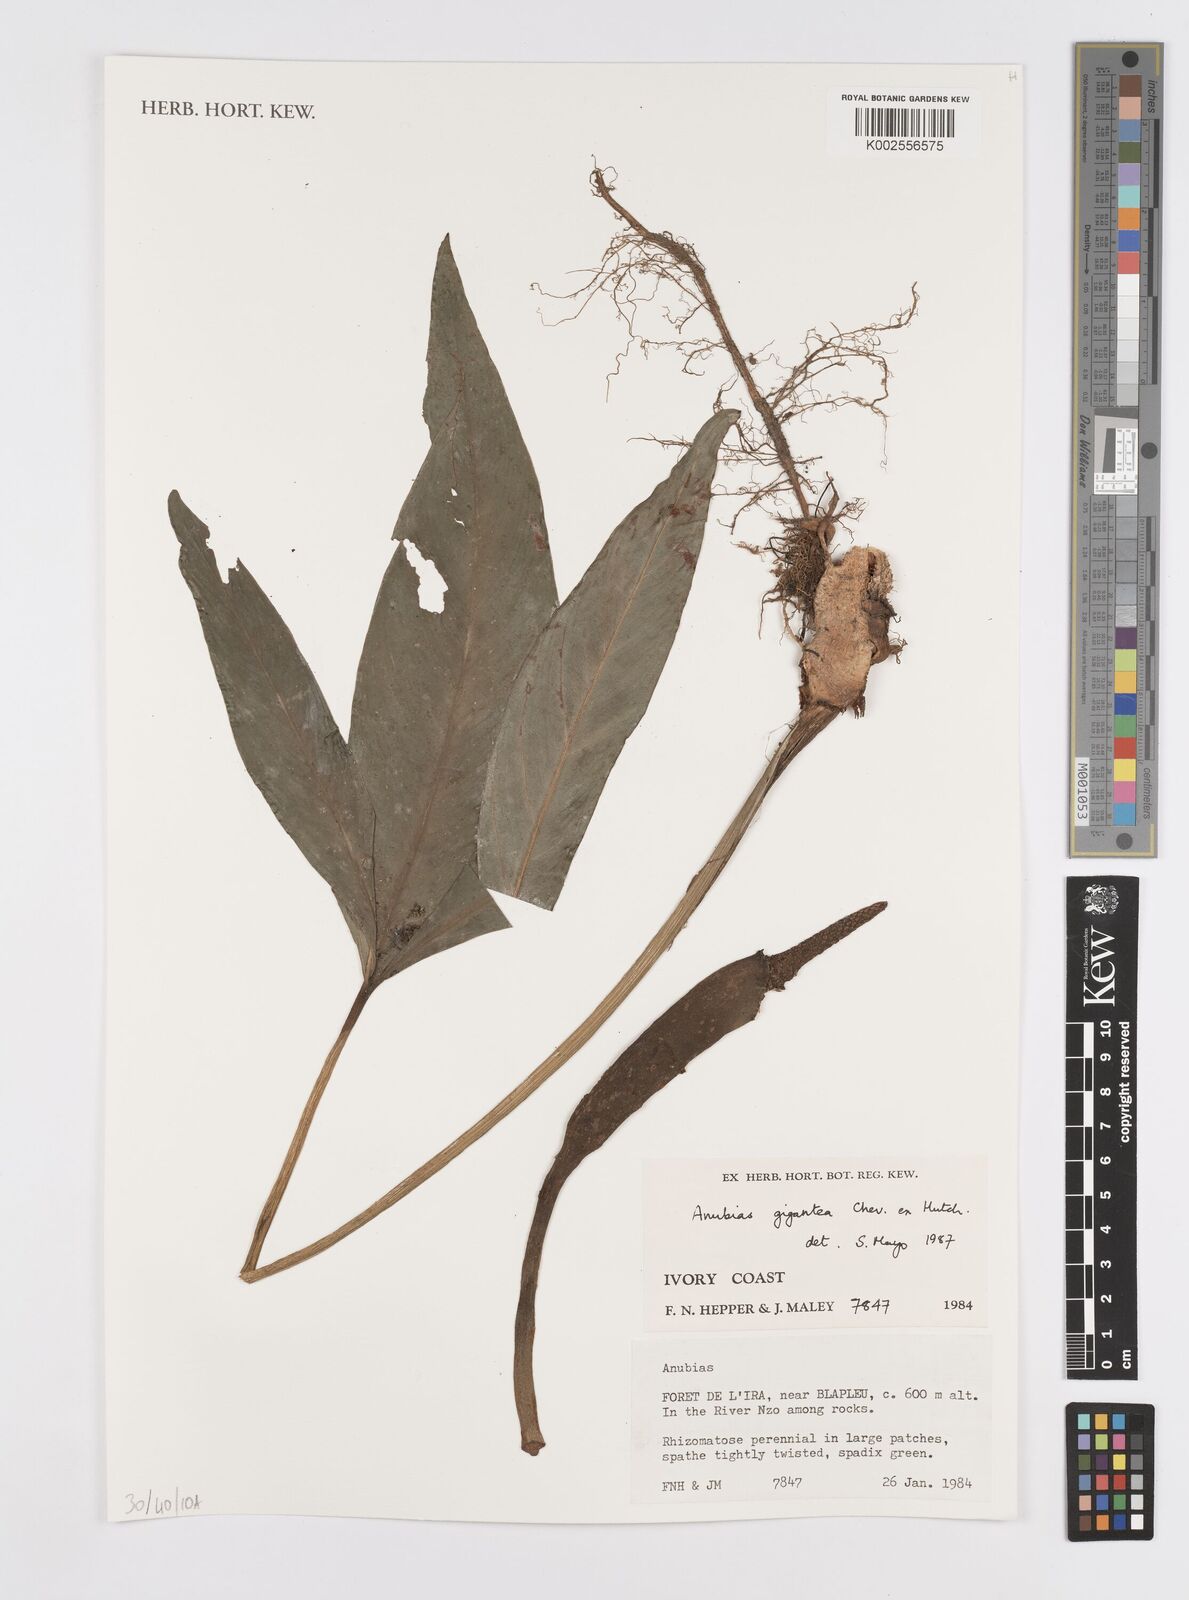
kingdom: Plantae
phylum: Tracheophyta
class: Liliopsida
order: Alismatales
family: Araceae
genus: Anubias
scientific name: Anubias gigantea
